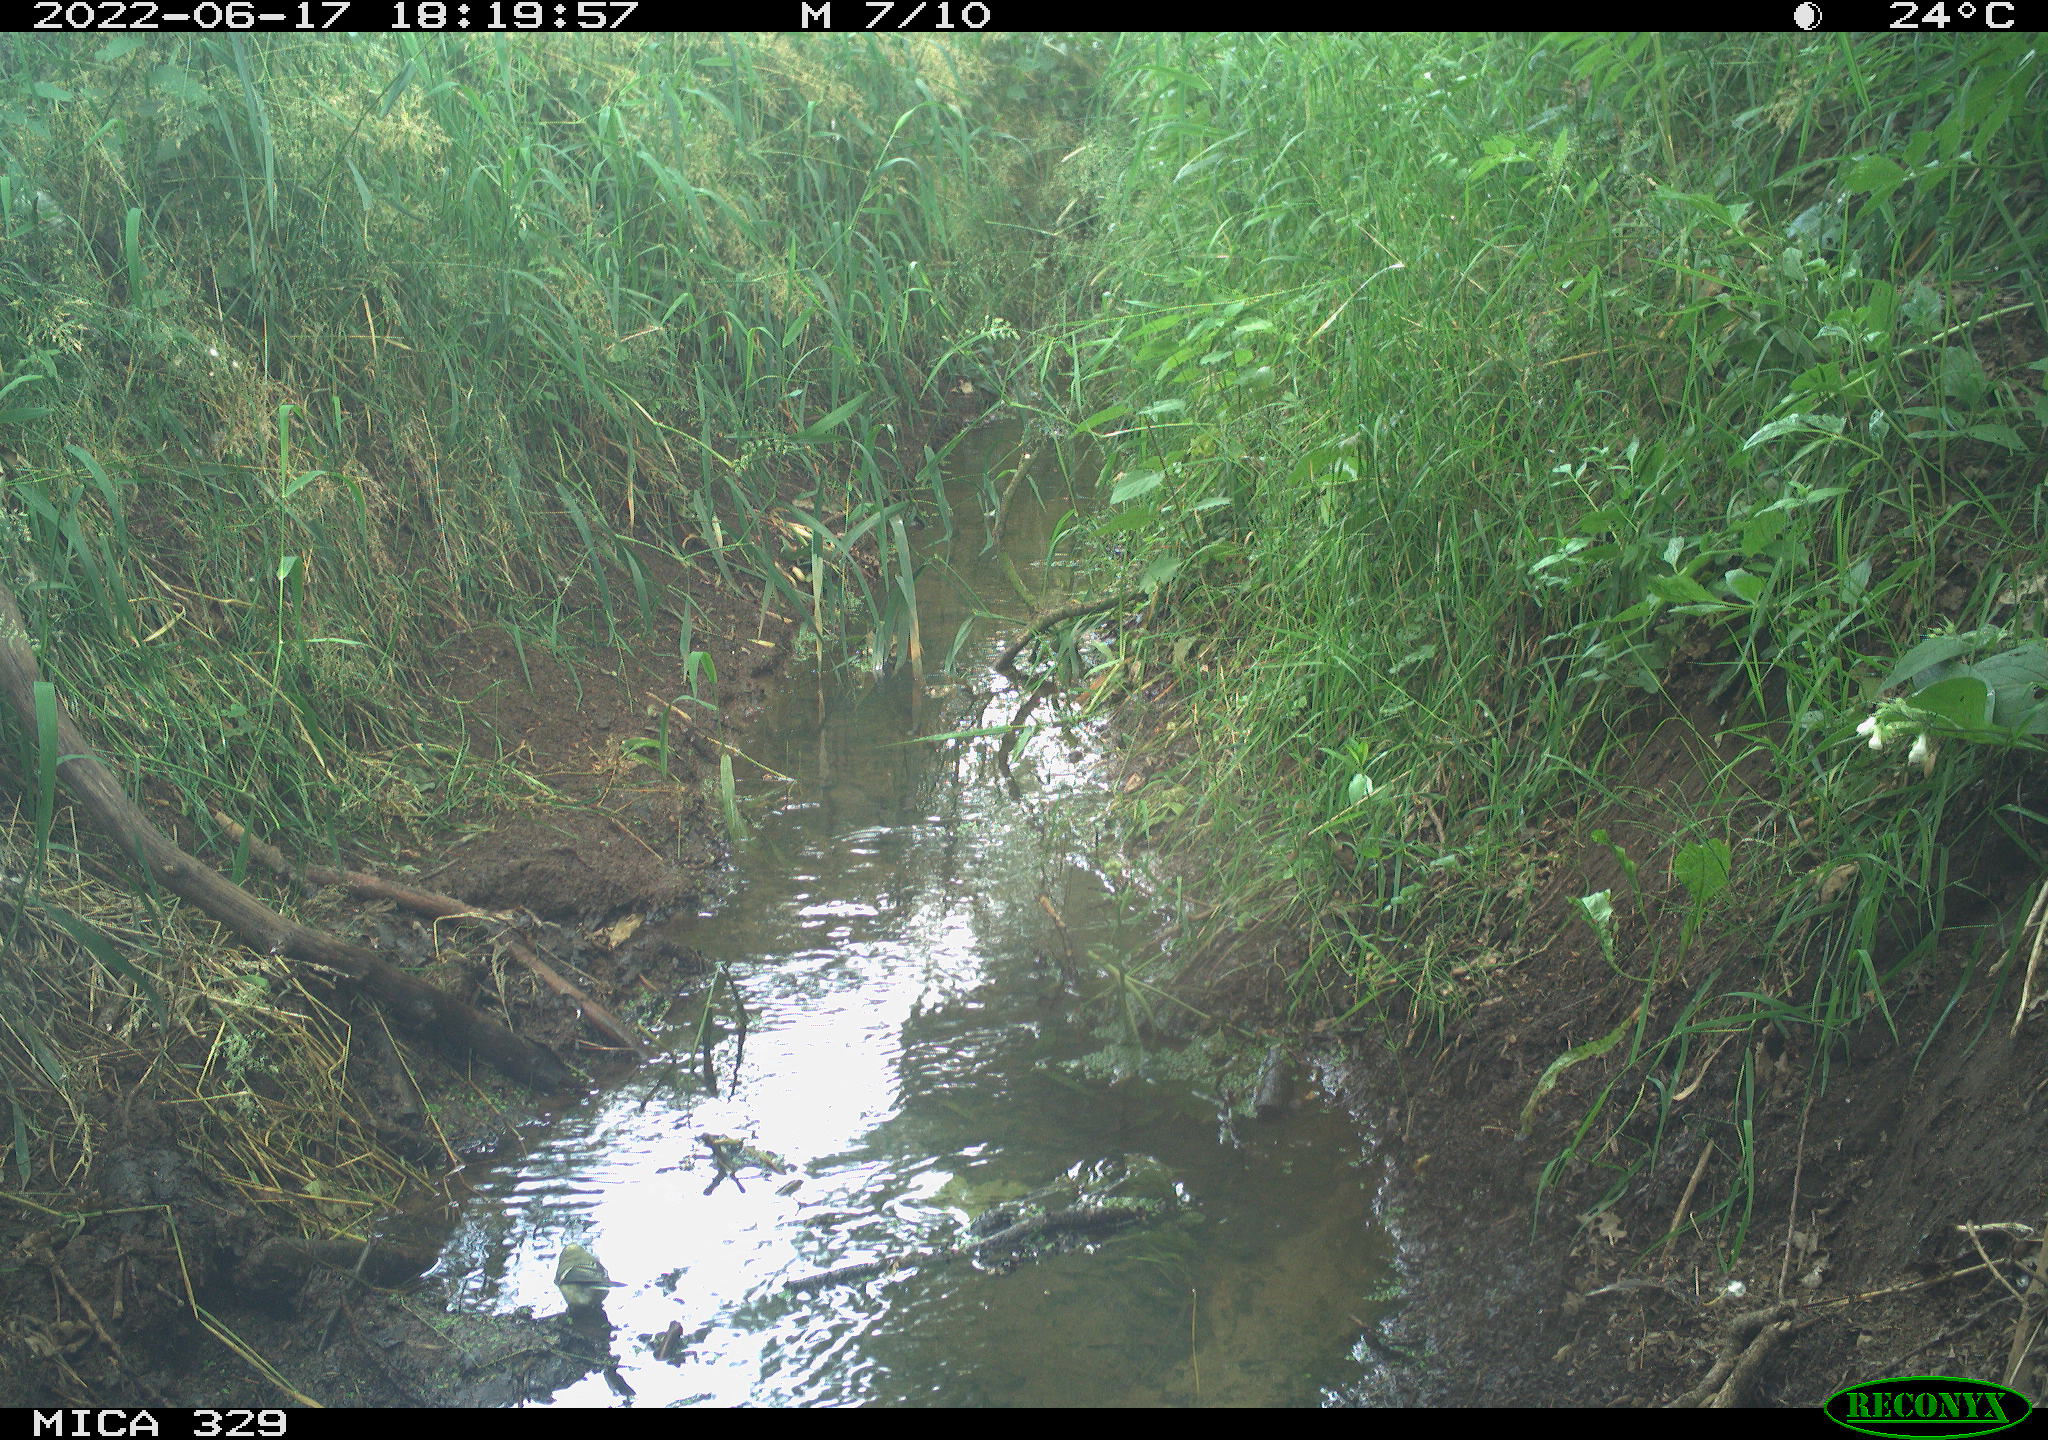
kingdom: Animalia
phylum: Chordata
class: Aves
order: Passeriformes
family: Paridae
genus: Parus
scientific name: Parus major
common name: Great tit
